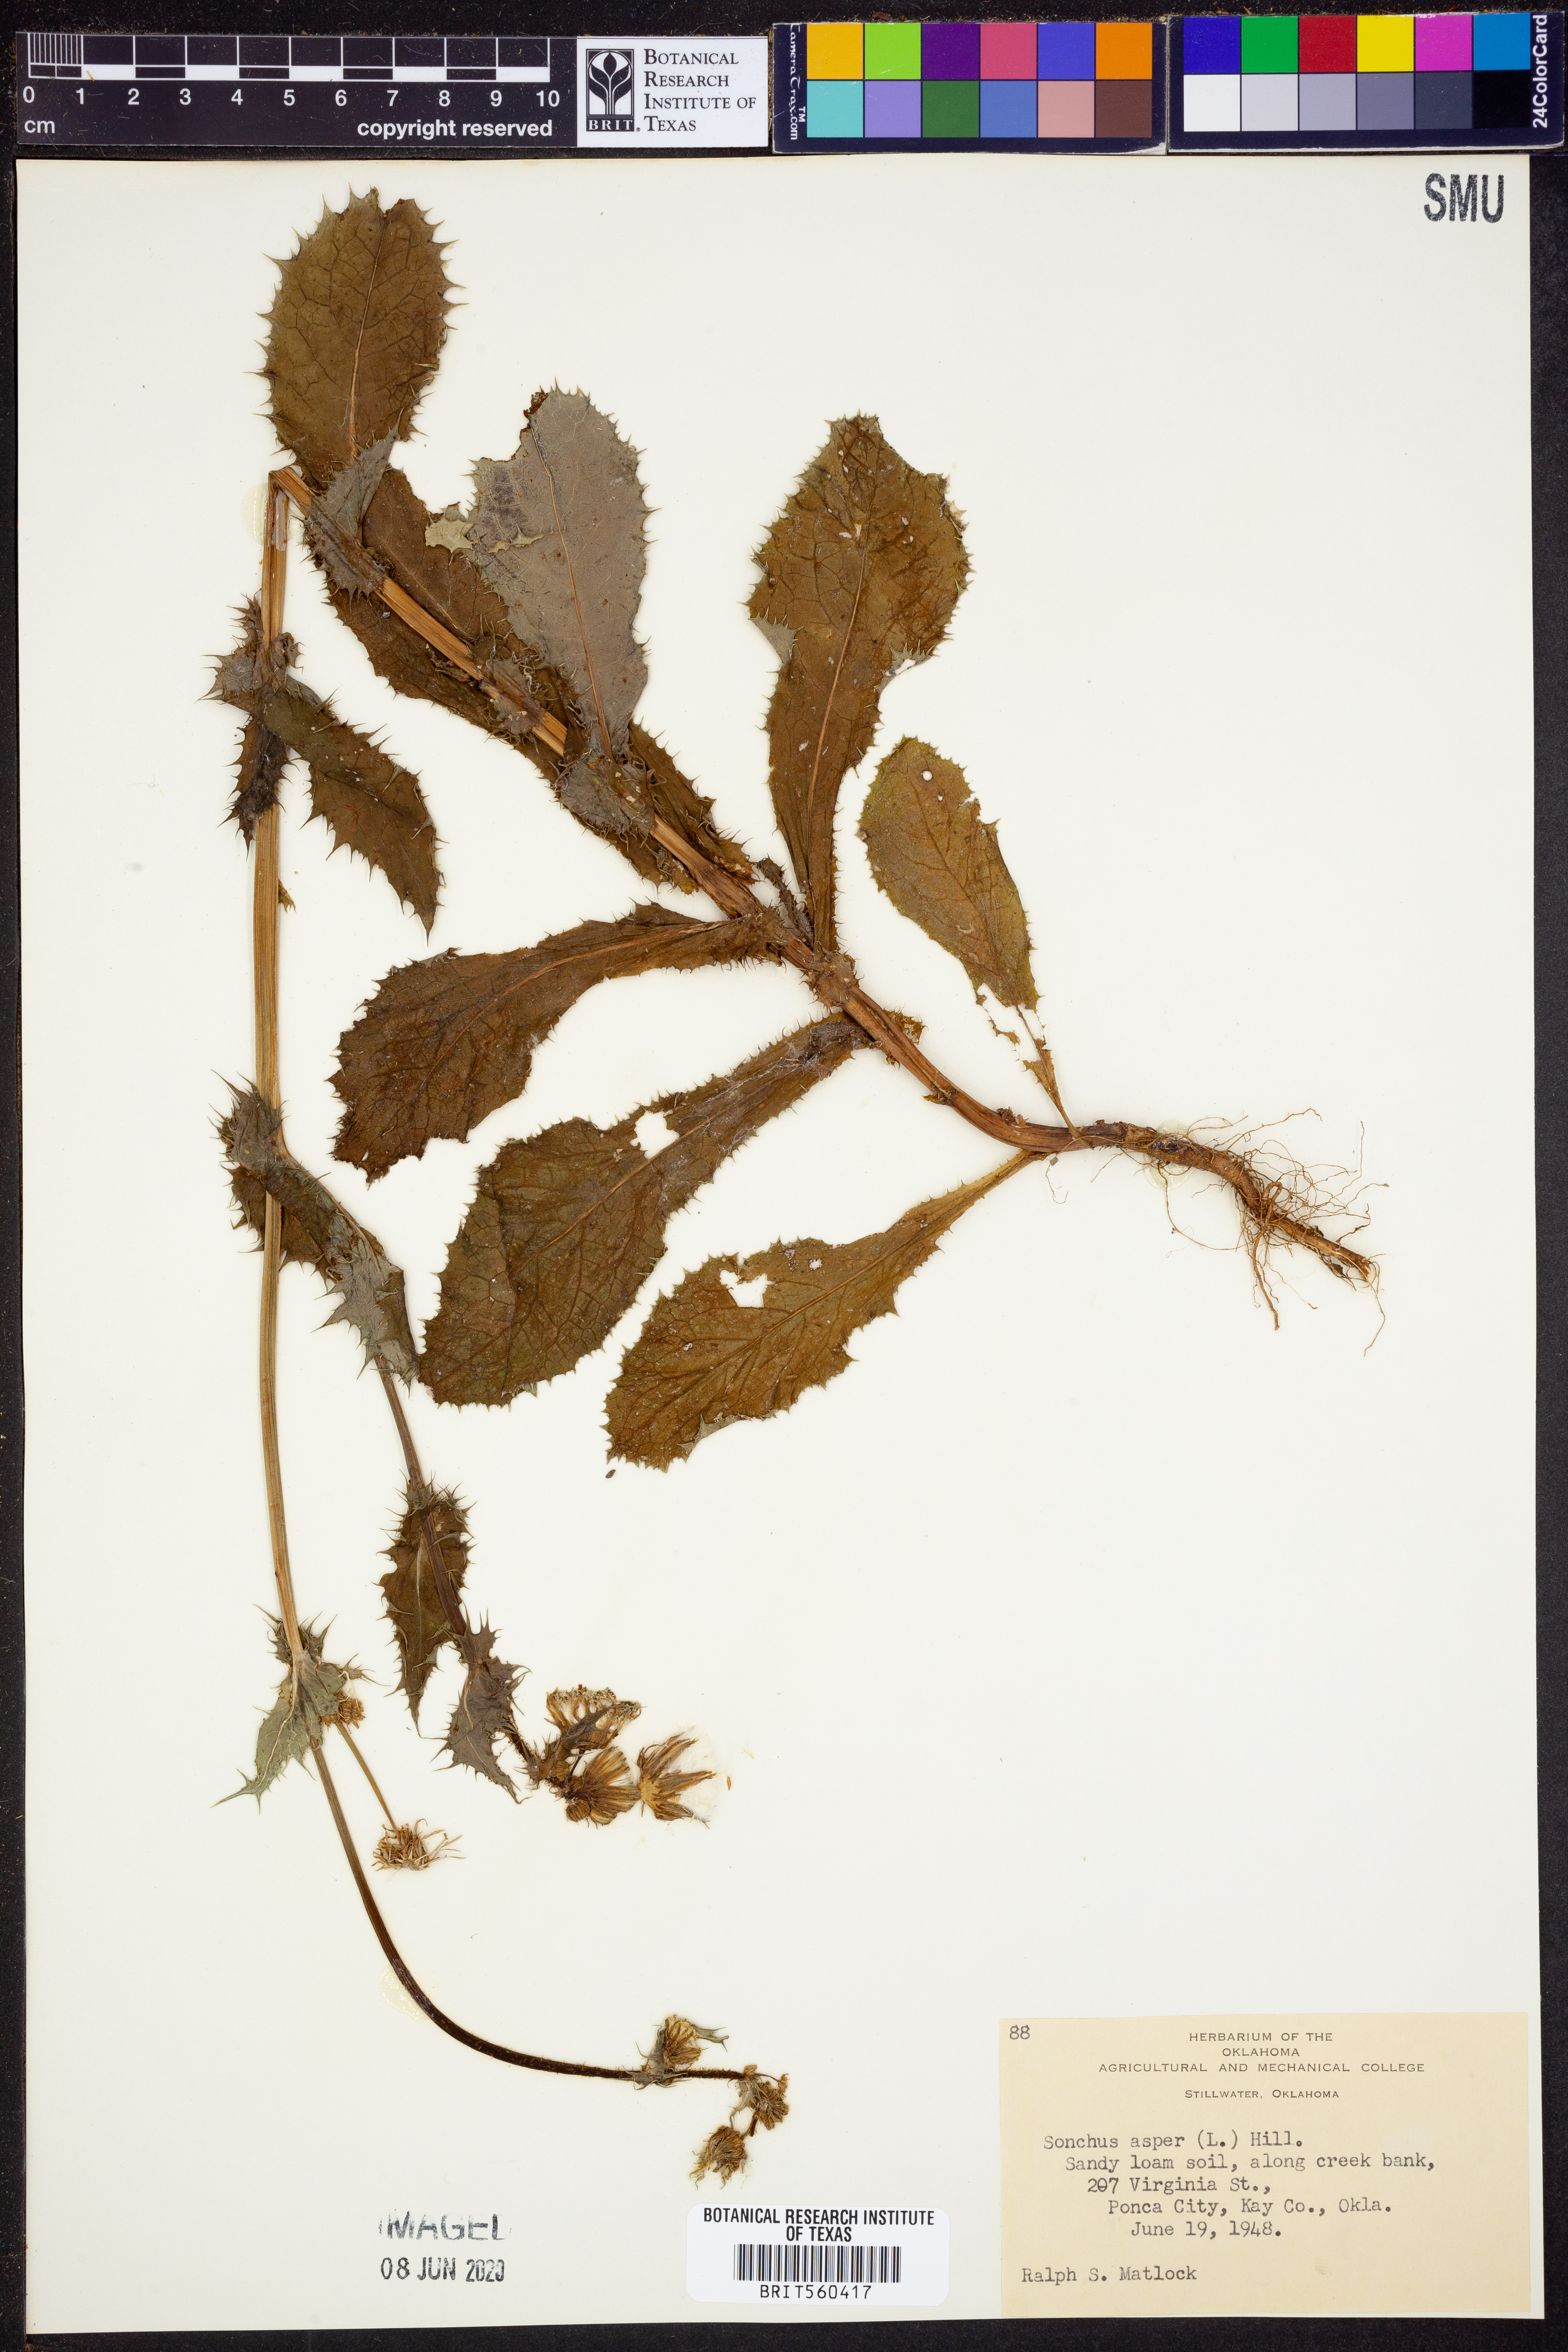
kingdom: Plantae
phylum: Tracheophyta
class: Magnoliopsida
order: Asterales
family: Asteraceae
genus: Sonchus
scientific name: Sonchus asper
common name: Prickly sow-thistle
